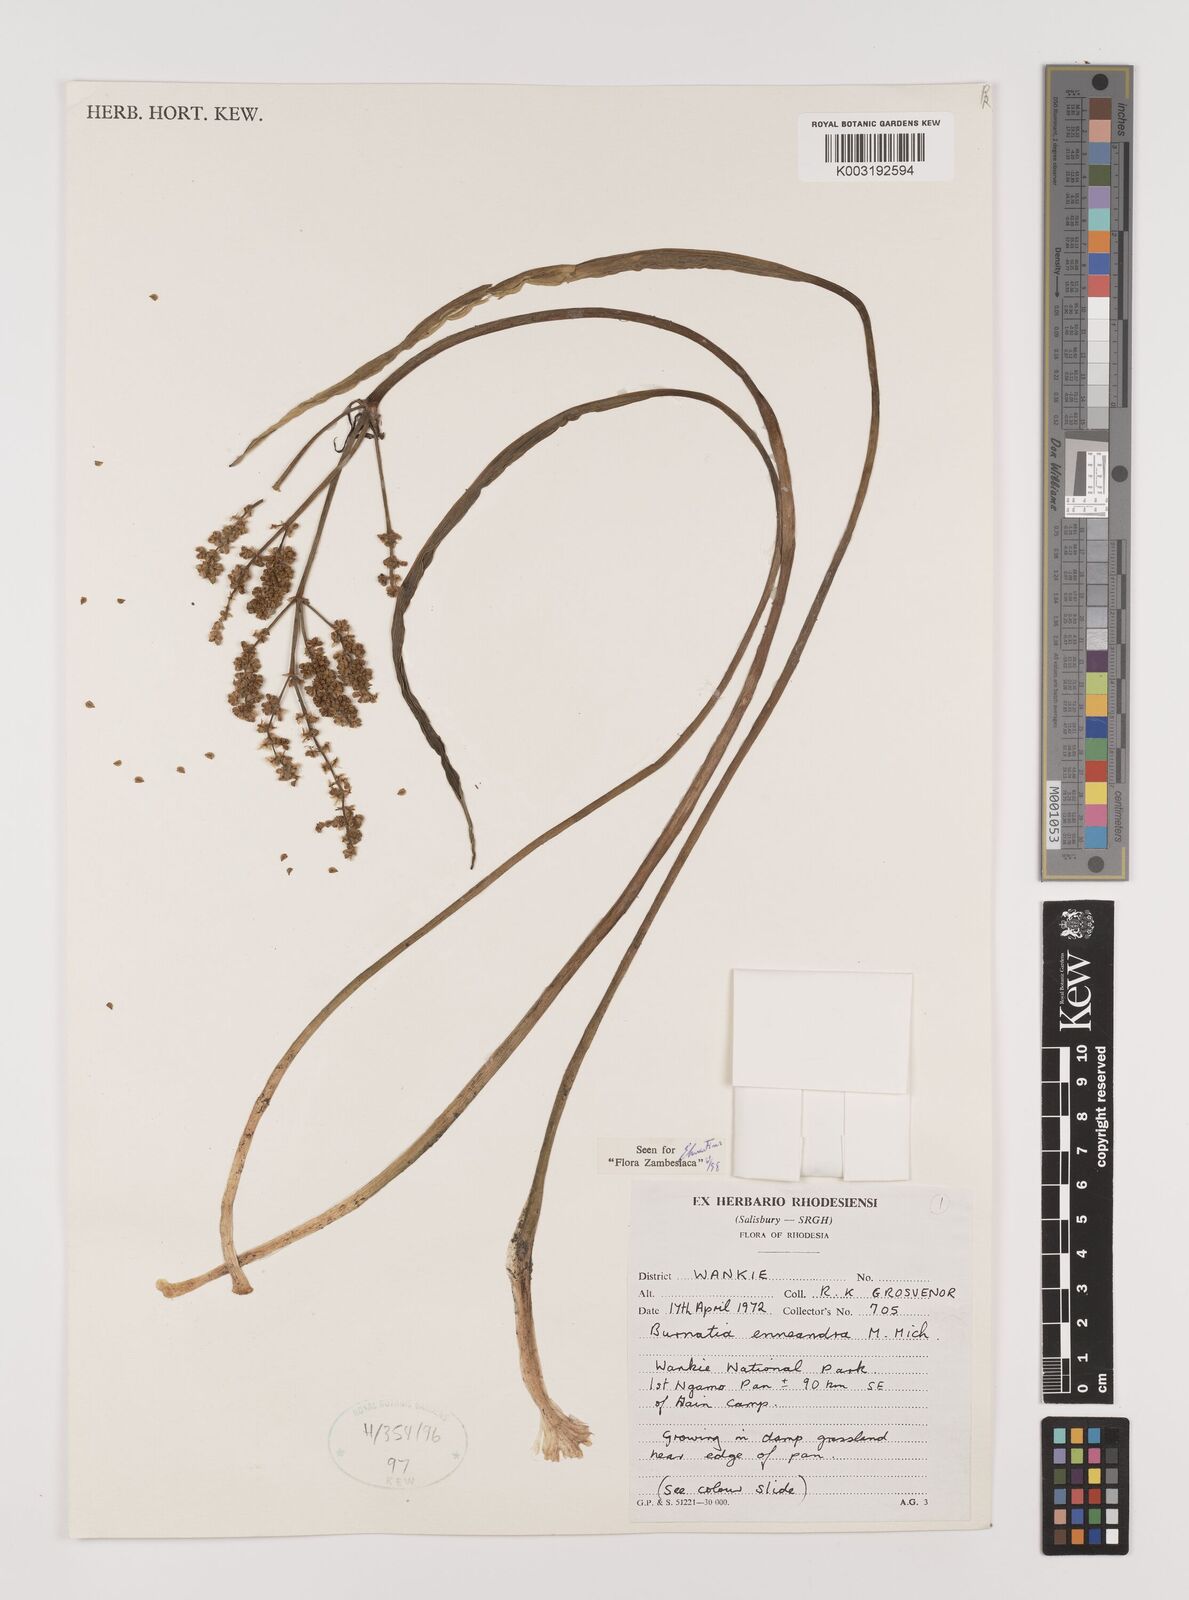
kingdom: Plantae
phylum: Tracheophyta
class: Liliopsida
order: Alismatales
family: Alismataceae
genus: Burnatia
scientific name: Burnatia enneandra
